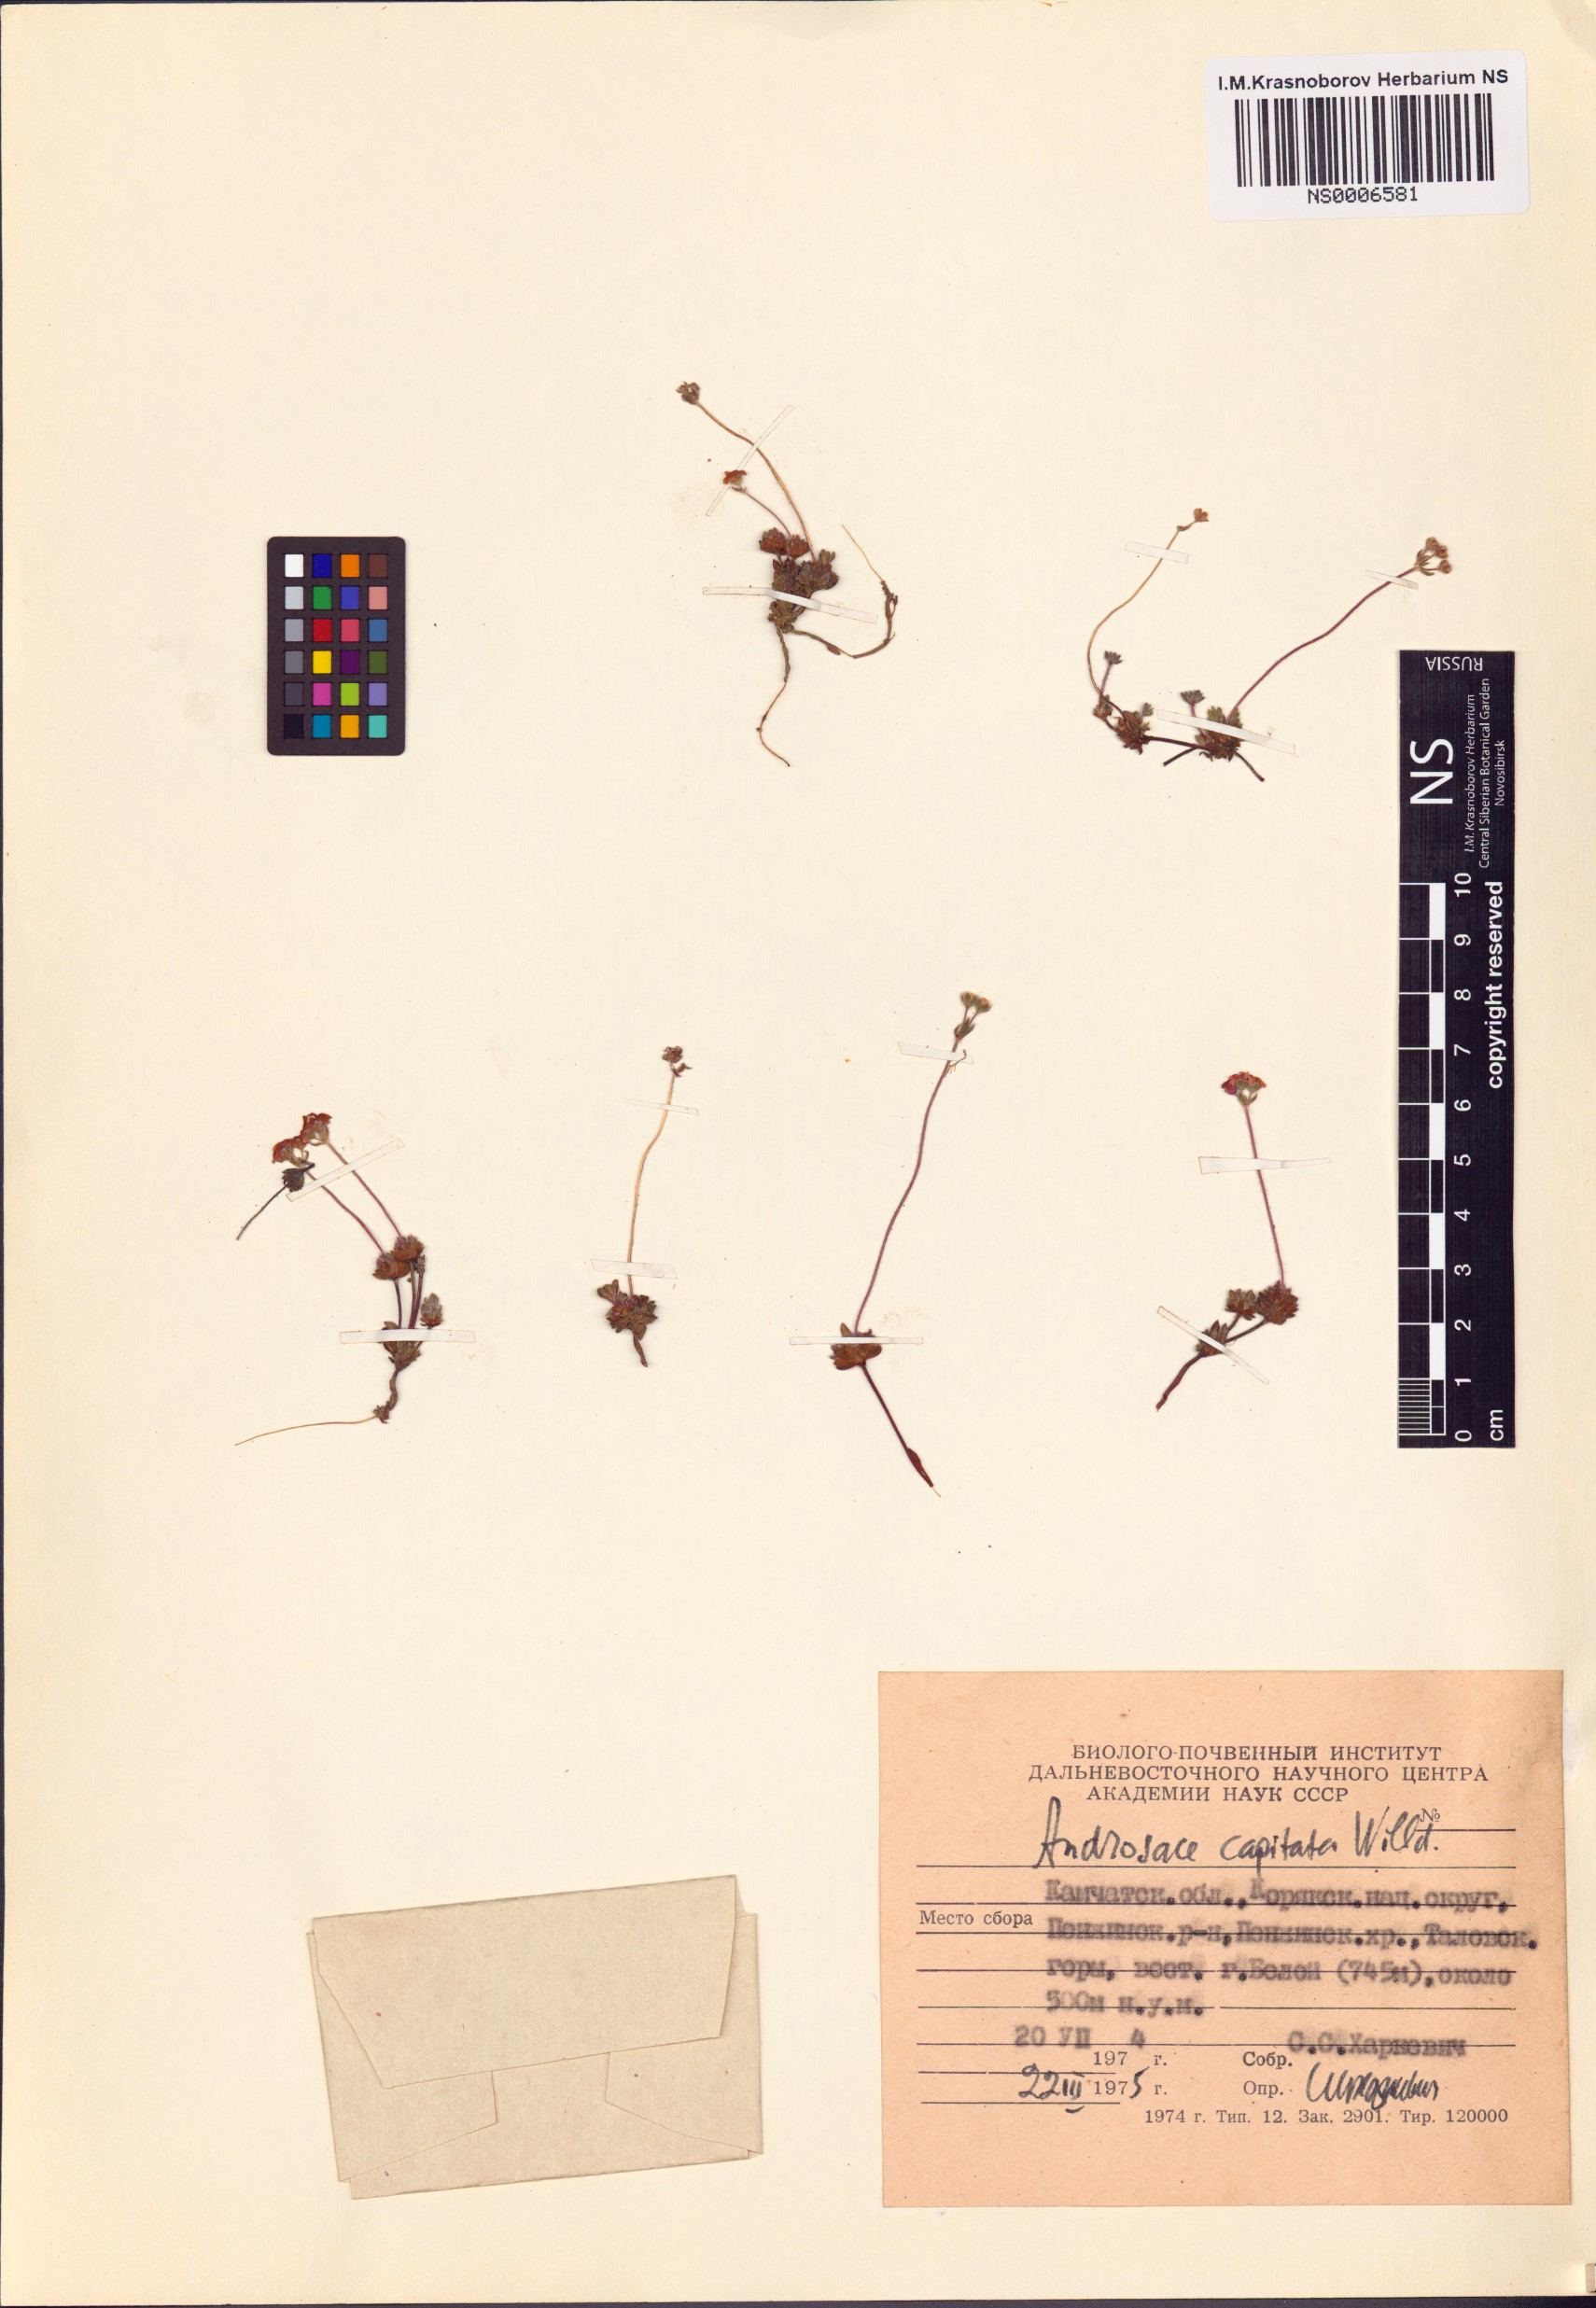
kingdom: Plantae
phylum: Tracheophyta
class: Magnoliopsida
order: Ericales
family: Primulaceae
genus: Androsace
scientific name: Androsace chamaejasme
